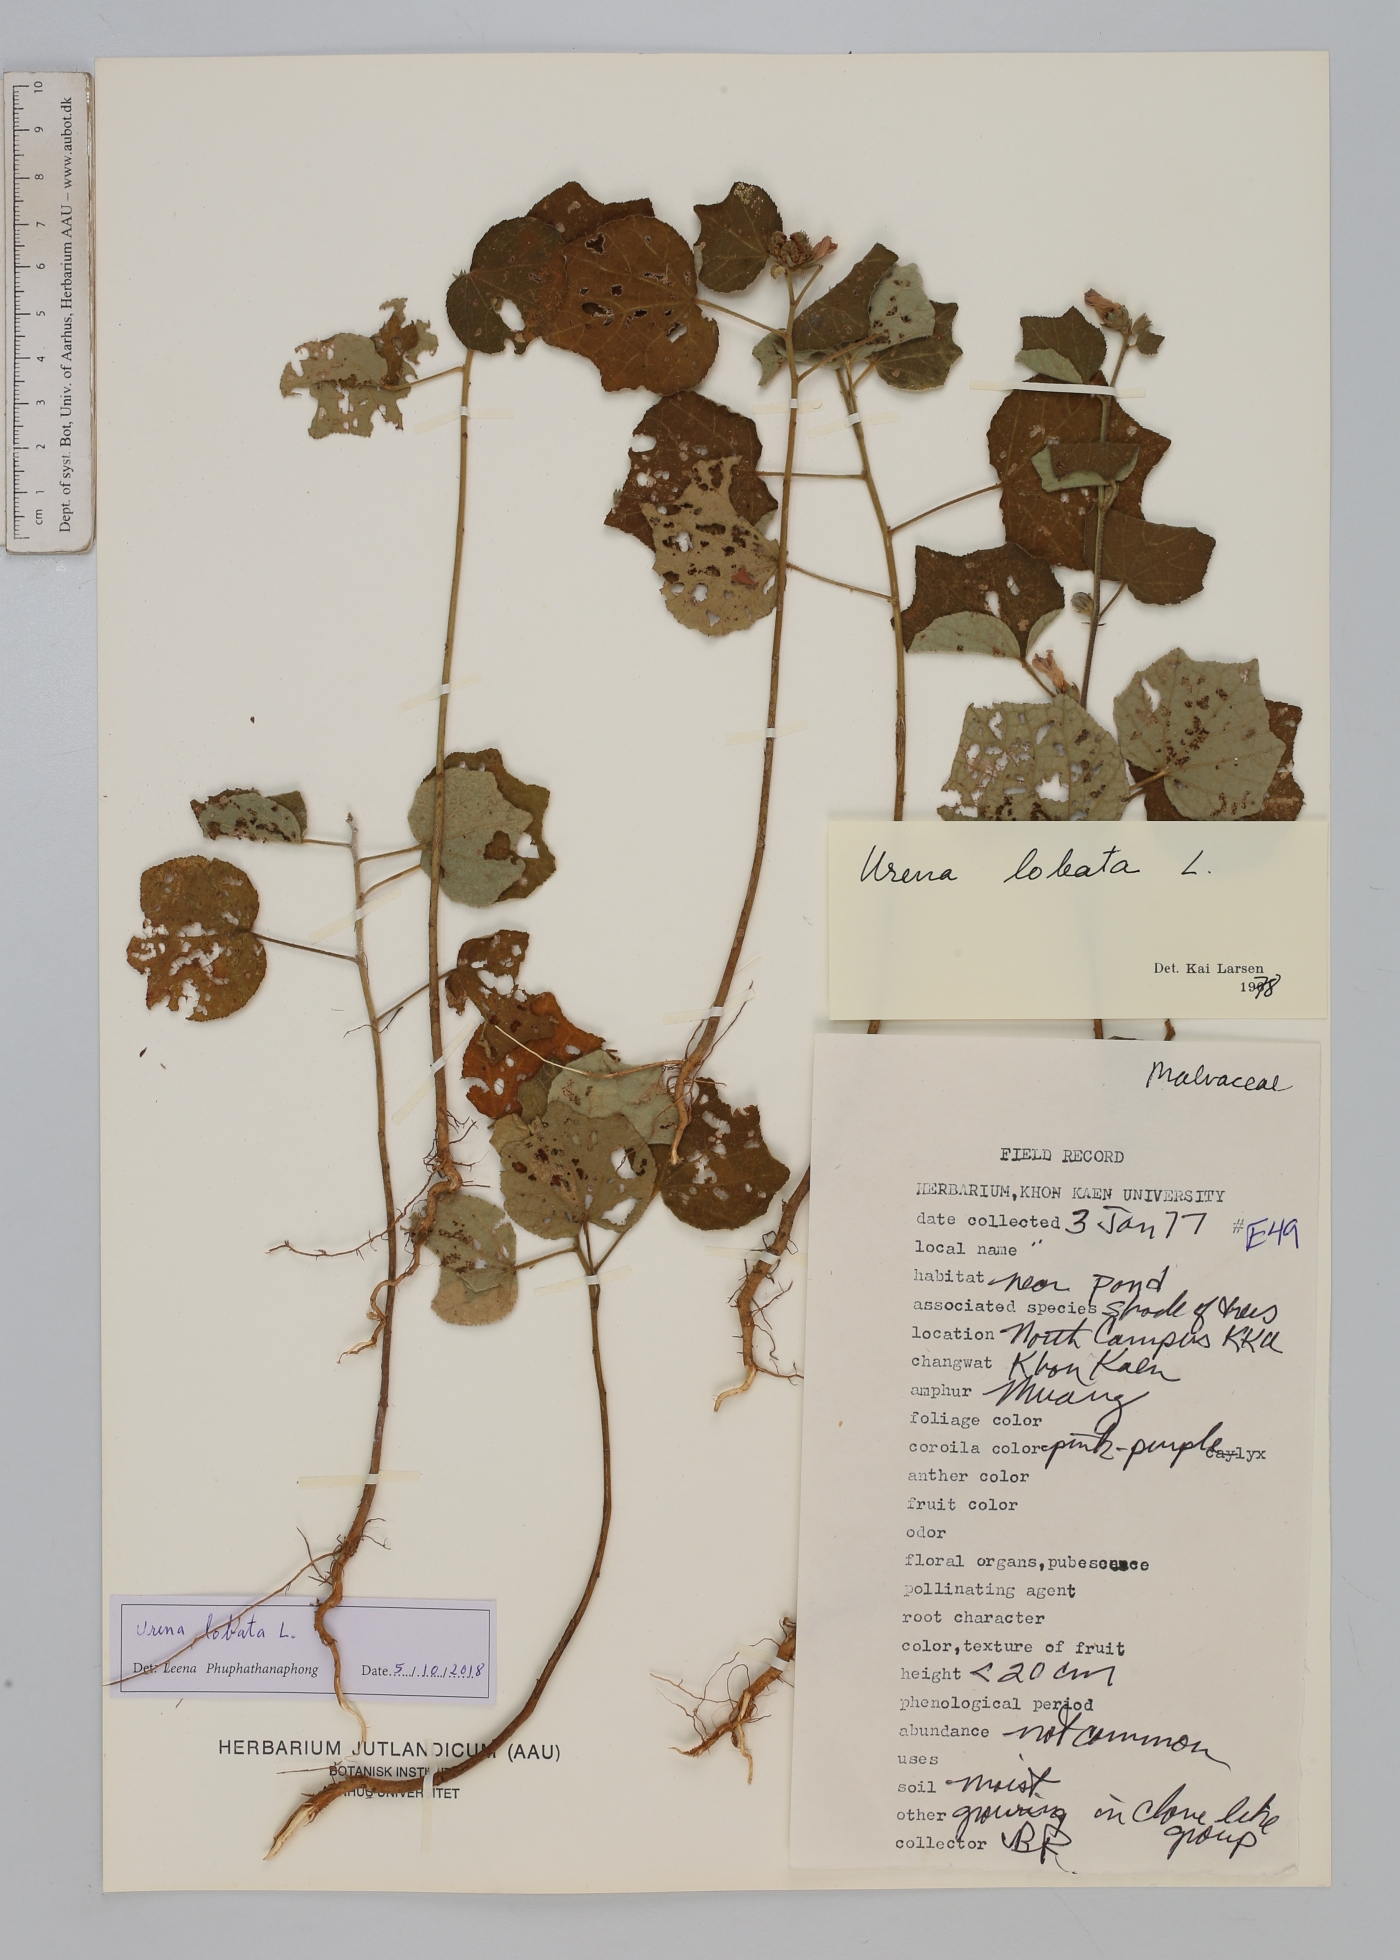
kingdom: Plantae
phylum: Tracheophyta
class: Magnoliopsida
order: Malvales
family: Malvaceae
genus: Urena
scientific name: Urena lobata
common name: Caesarweed
